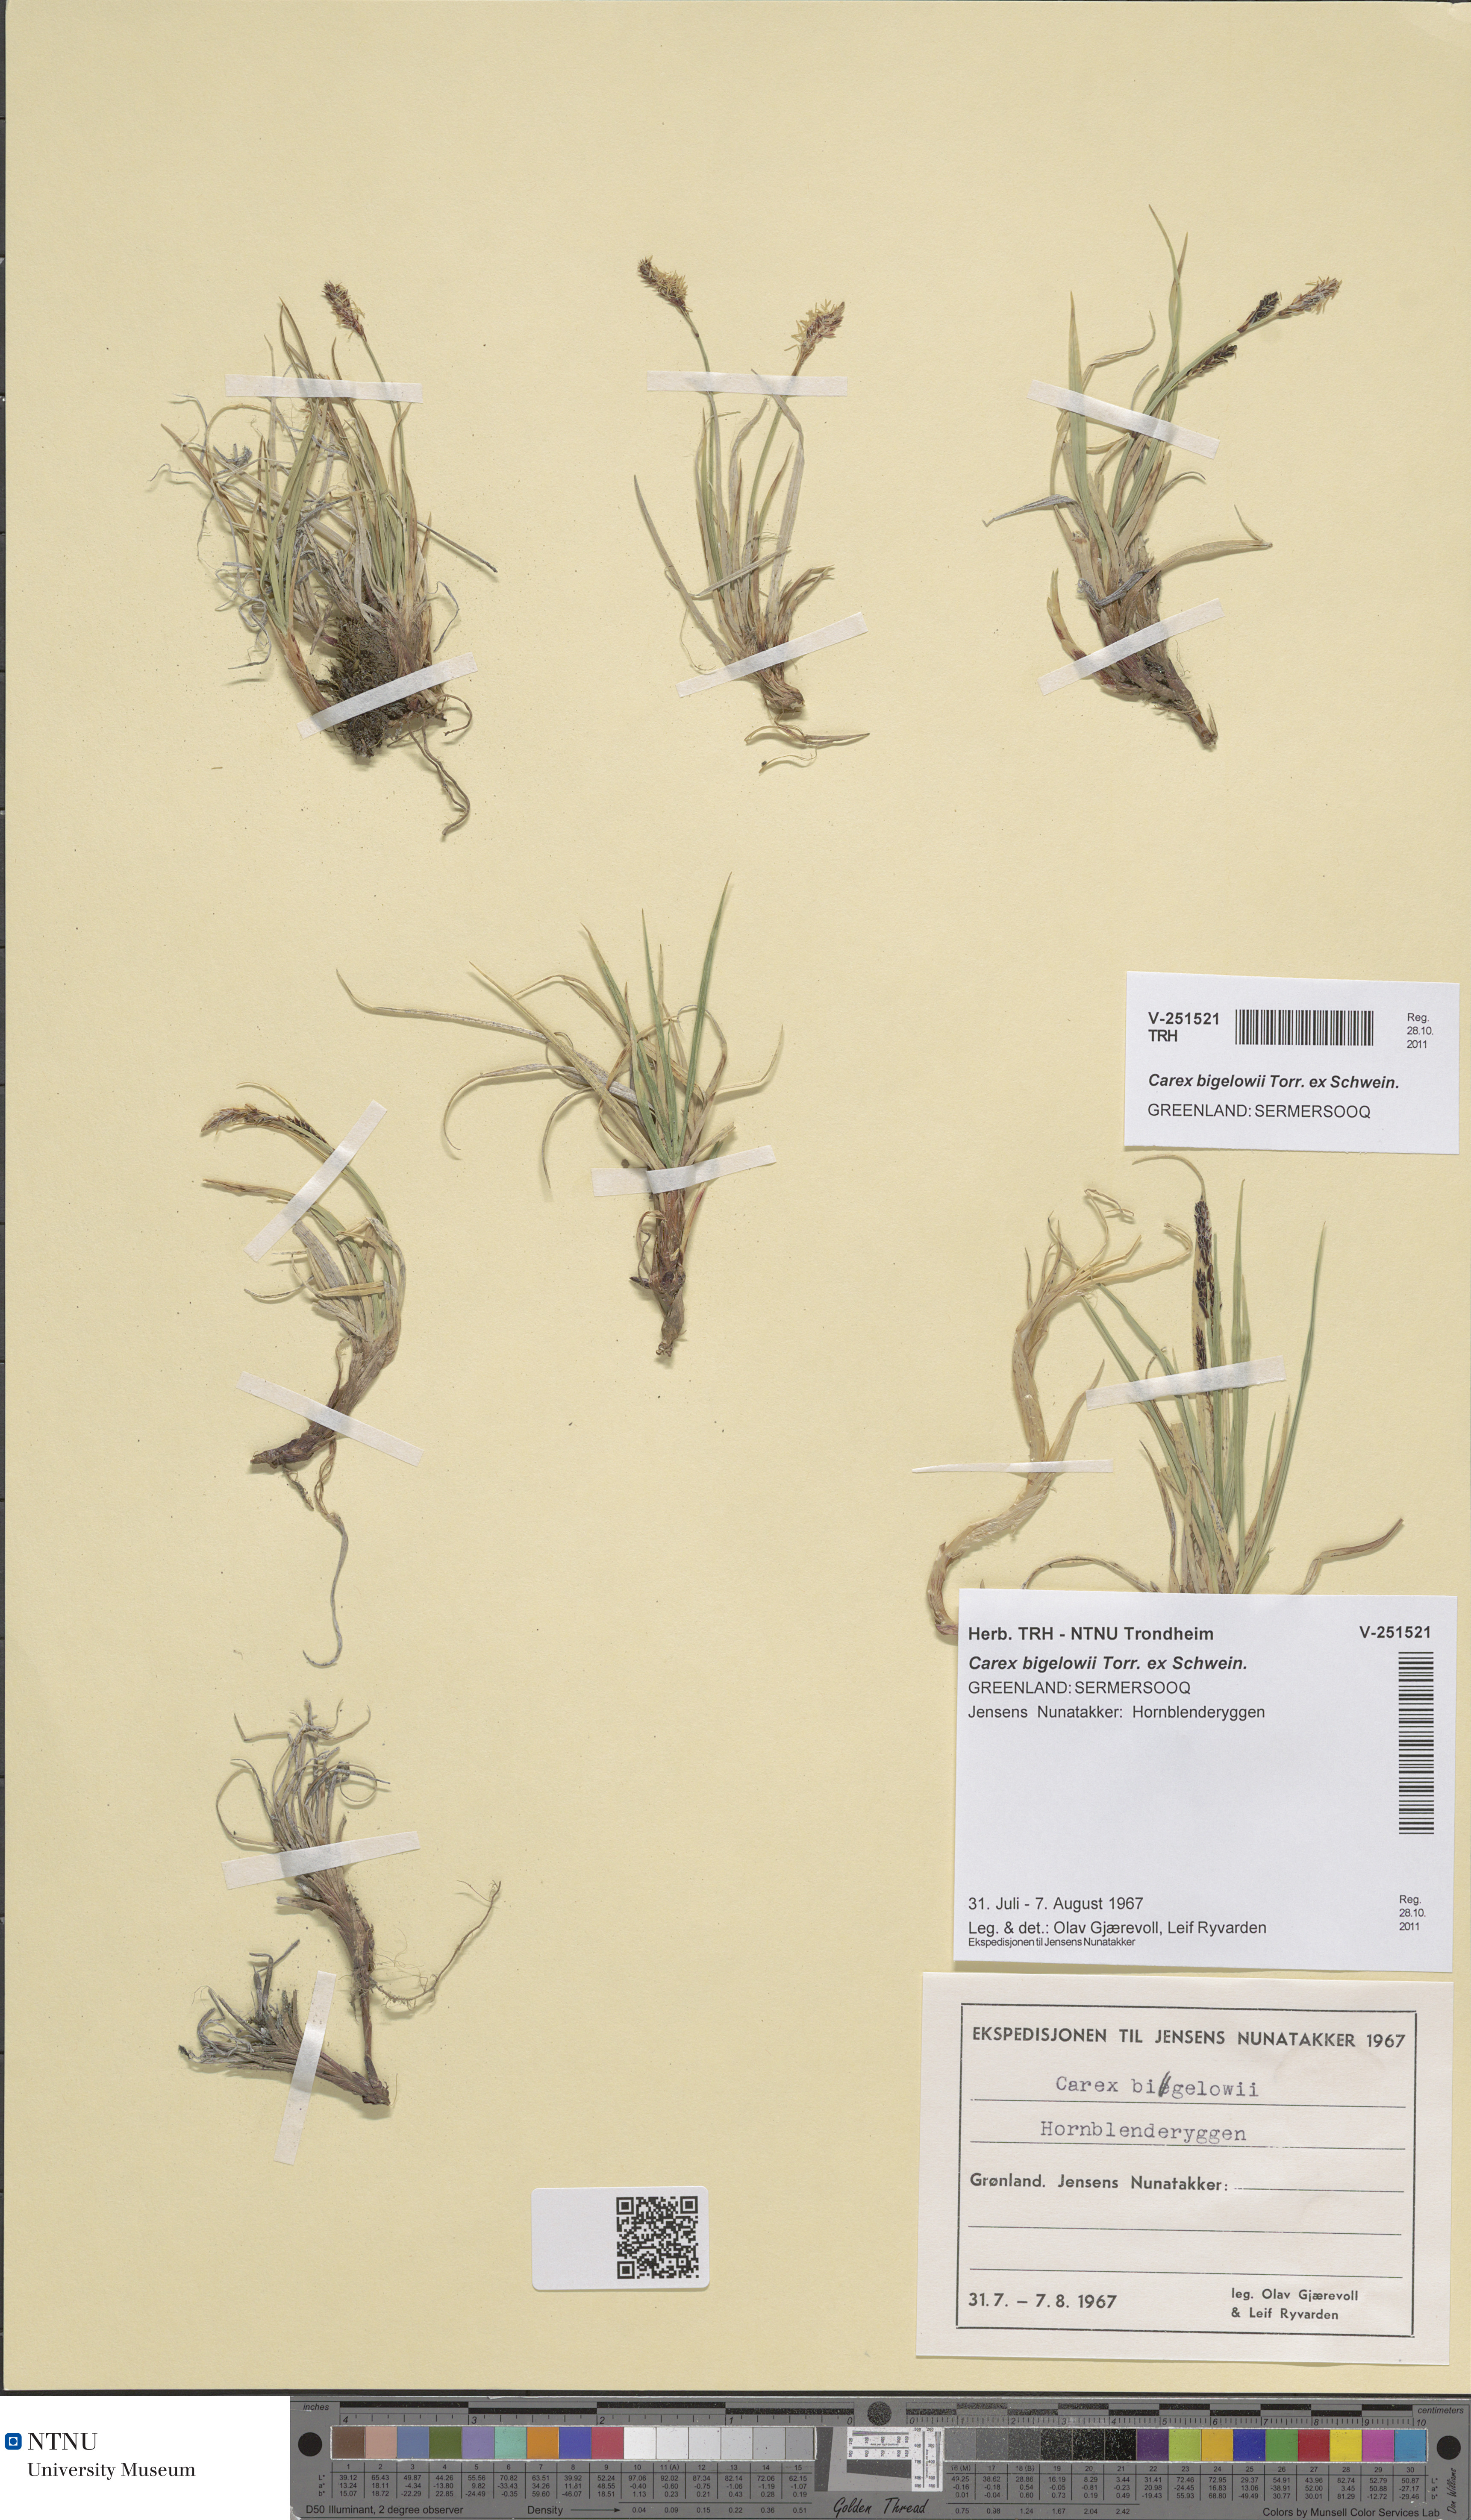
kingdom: Plantae
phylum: Tracheophyta
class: Liliopsida
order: Poales
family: Cyperaceae
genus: Carex
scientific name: Carex bigelowii
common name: Stiff sedge
